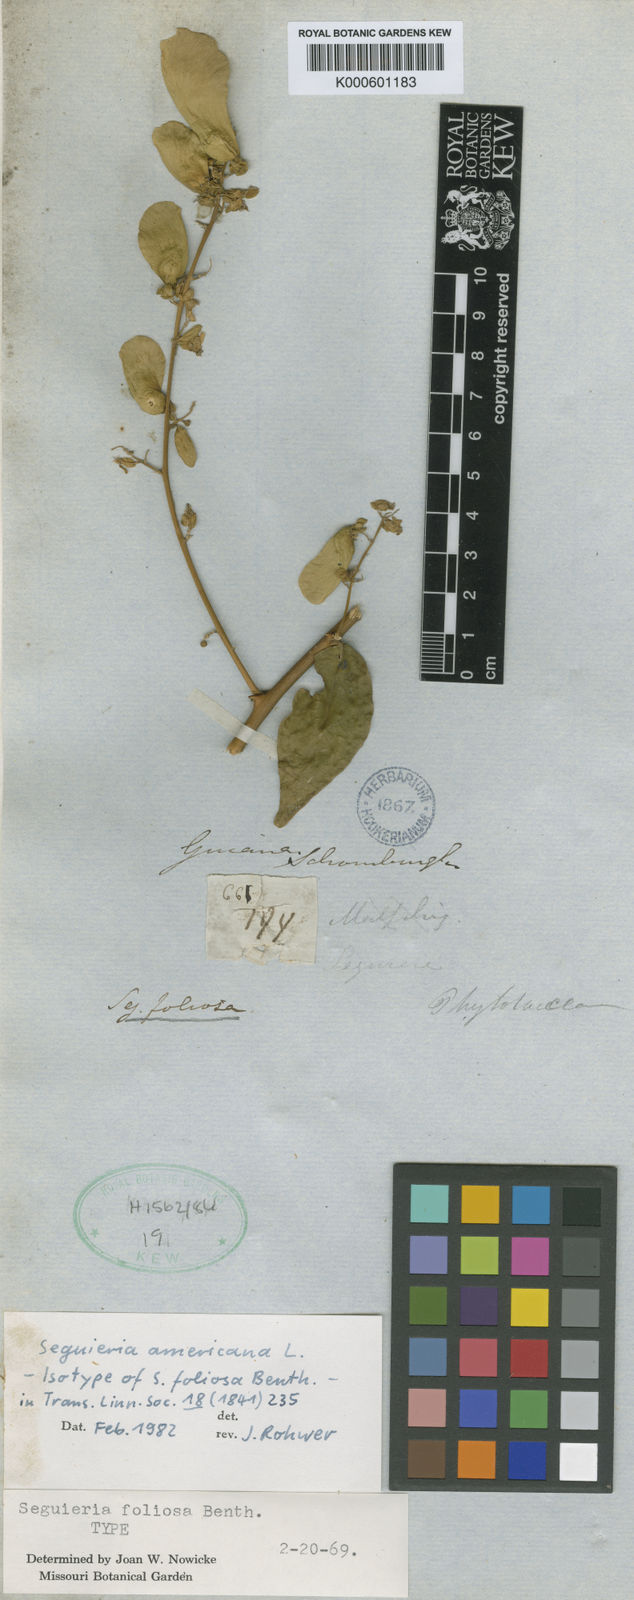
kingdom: Plantae
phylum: Tracheophyta
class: Magnoliopsida
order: Caryophyllales
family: Phytolaccaceae
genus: Seguieria
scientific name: Seguieria americana
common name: American seguieria
